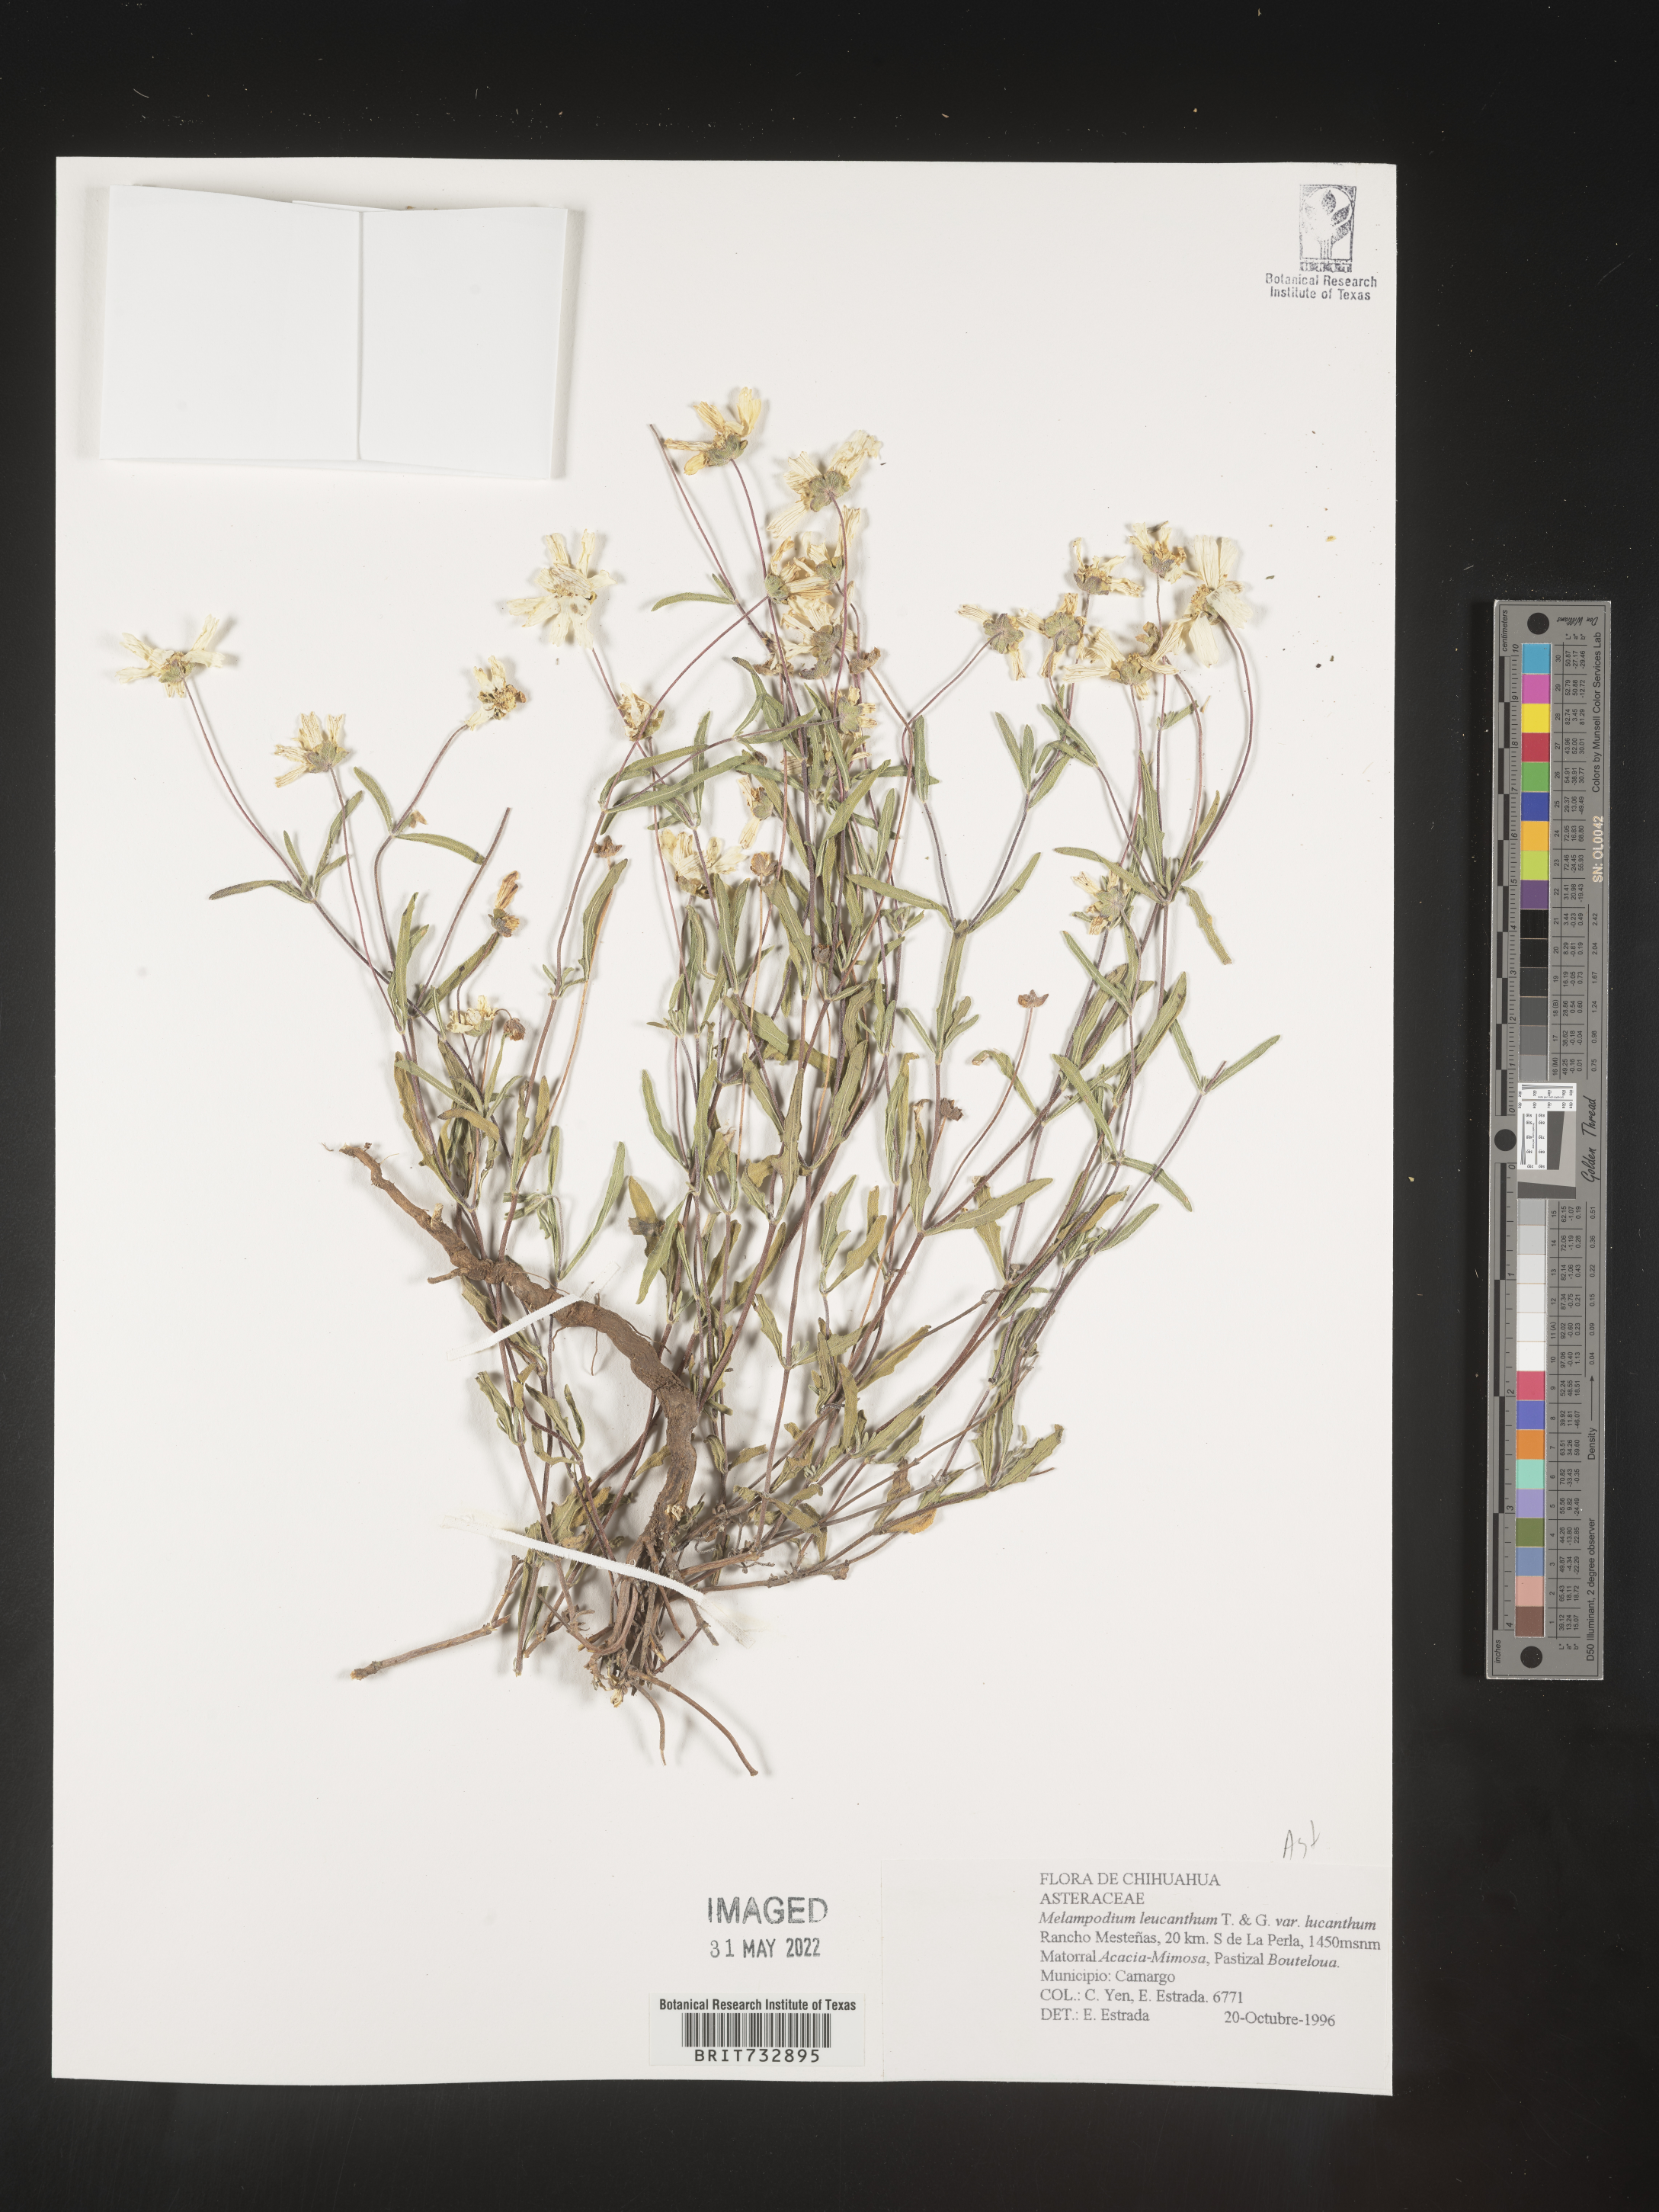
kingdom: Plantae
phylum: Tracheophyta
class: Magnoliopsida
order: Asterales
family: Asteraceae
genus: Melampodium
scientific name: Melampodium
